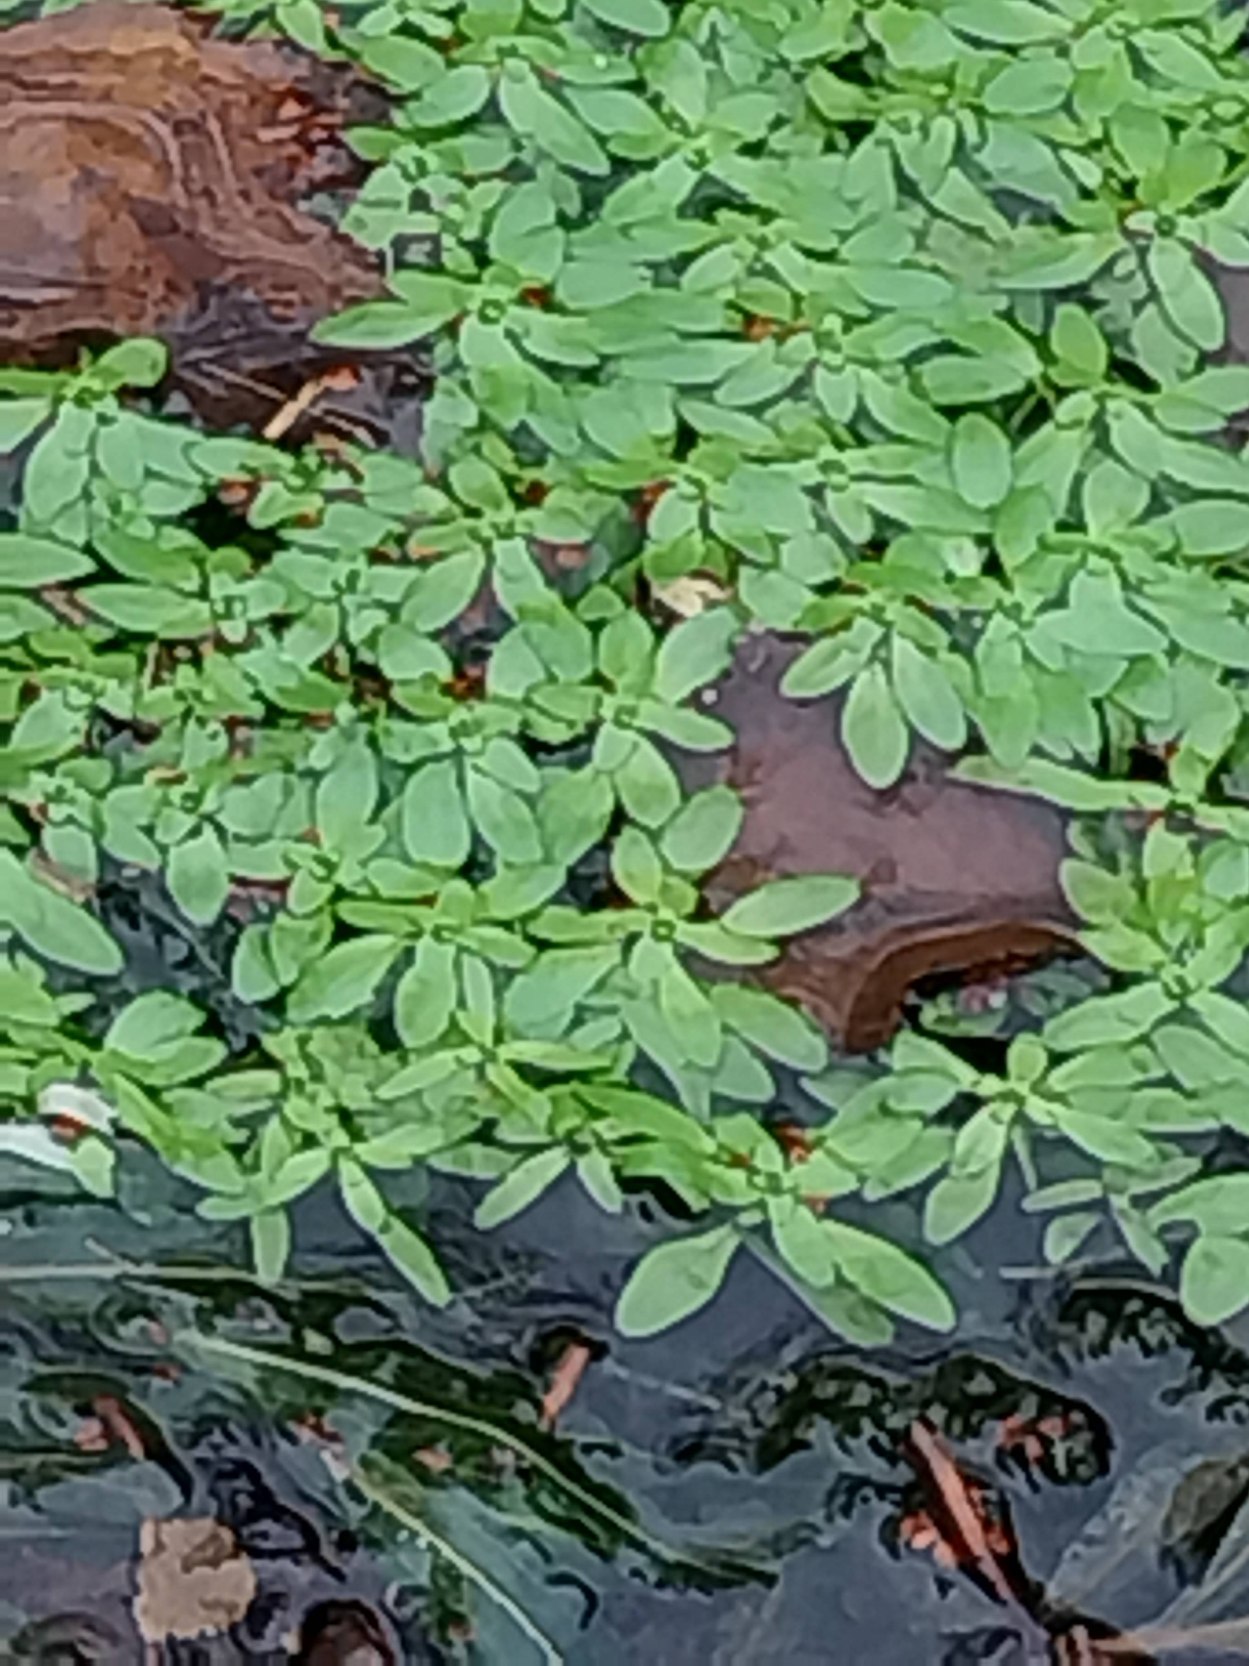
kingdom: Plantae
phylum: Tracheophyta
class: Magnoliopsida
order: Lamiales
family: Plantaginaceae
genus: Callitriche
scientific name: Callitriche
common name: Vandstjerneslægten
